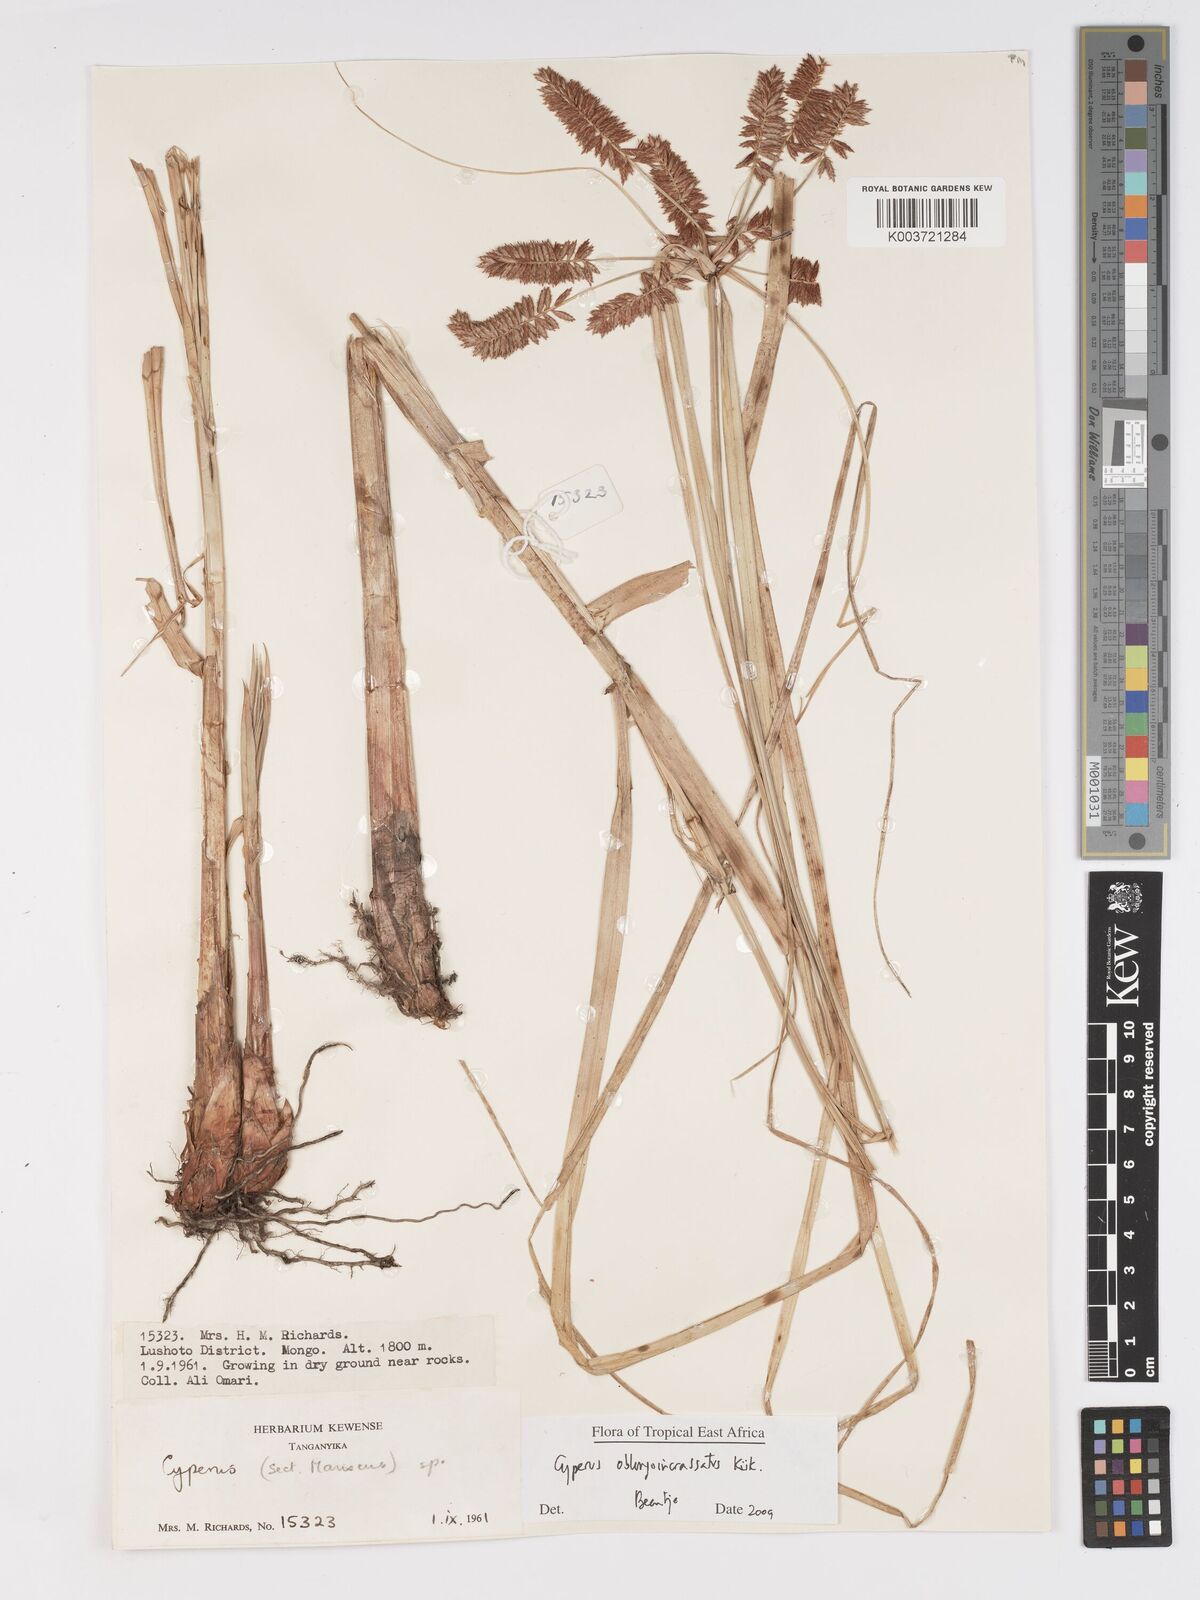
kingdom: Plantae
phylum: Tracheophyta
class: Liliopsida
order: Poales
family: Cyperaceae
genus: Cyperus
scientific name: Cyperus oblongoincrassatus
